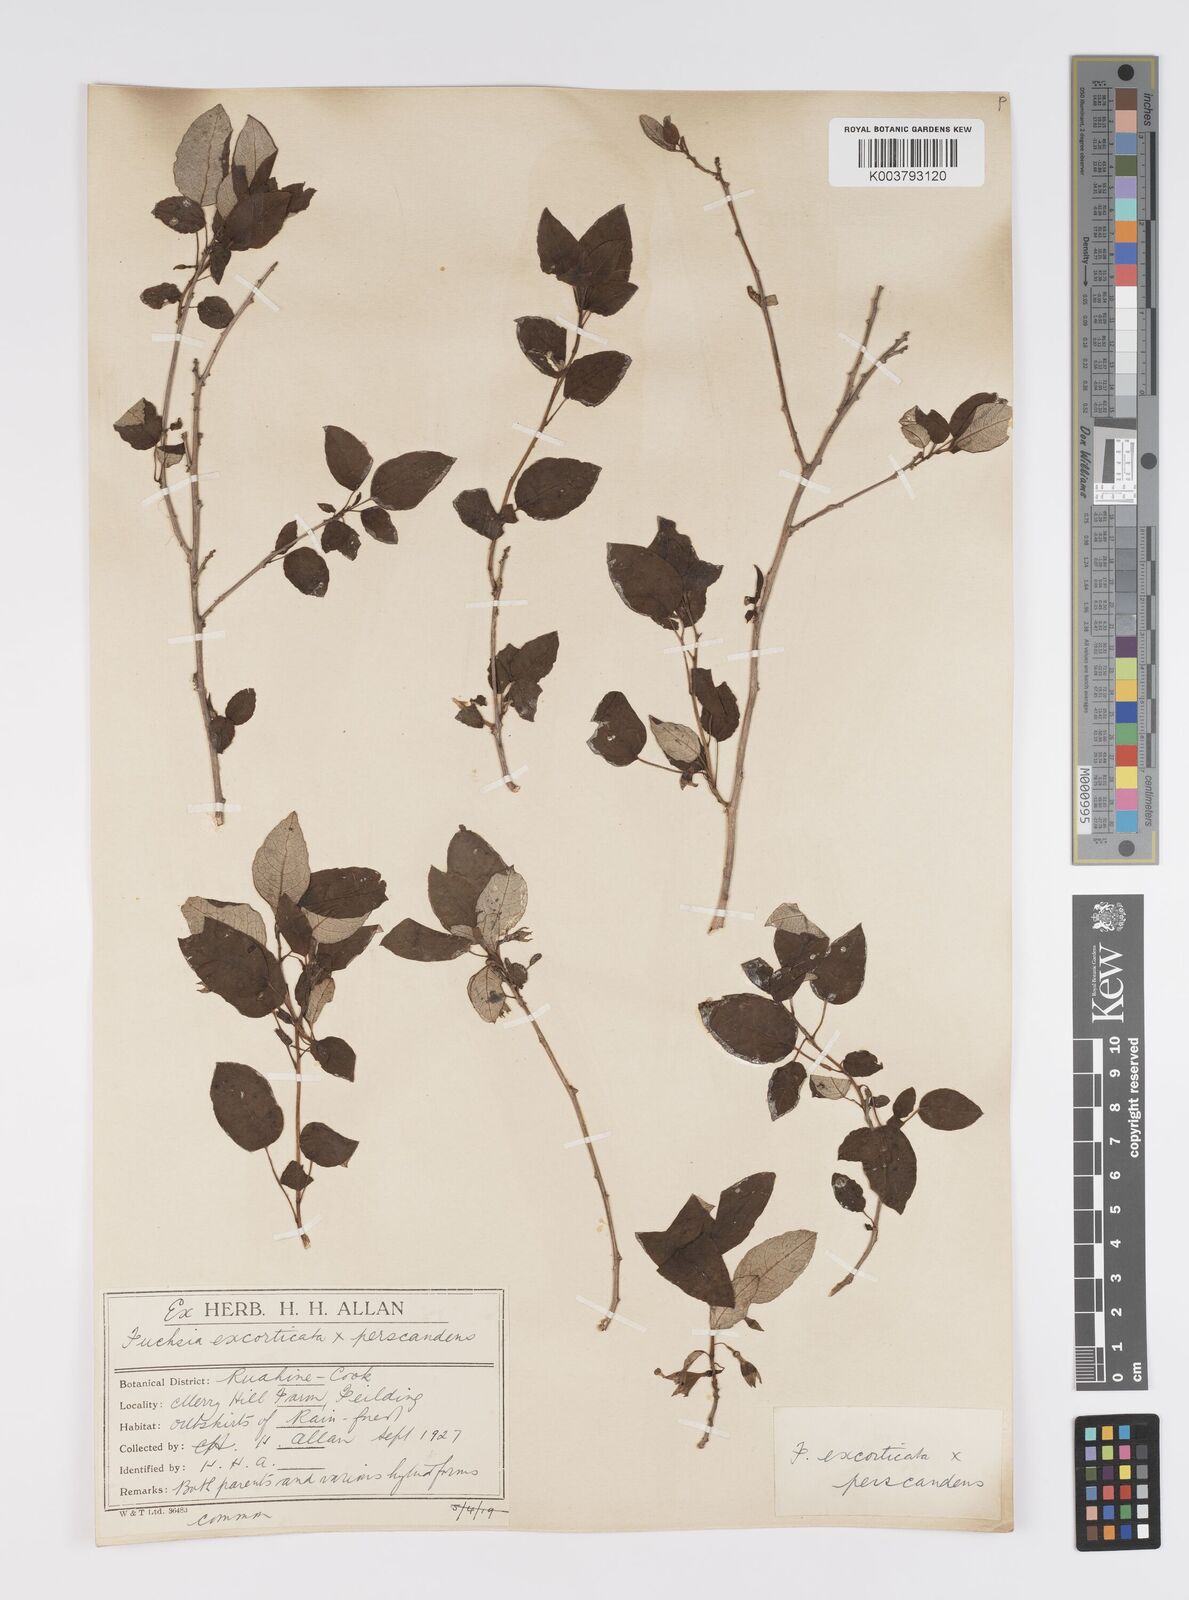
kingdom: Plantae
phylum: Tracheophyta
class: Magnoliopsida
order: Myrtales
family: Onagraceae
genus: Fuchsia
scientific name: Fuchsia excorticata
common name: Tree fuchsia
